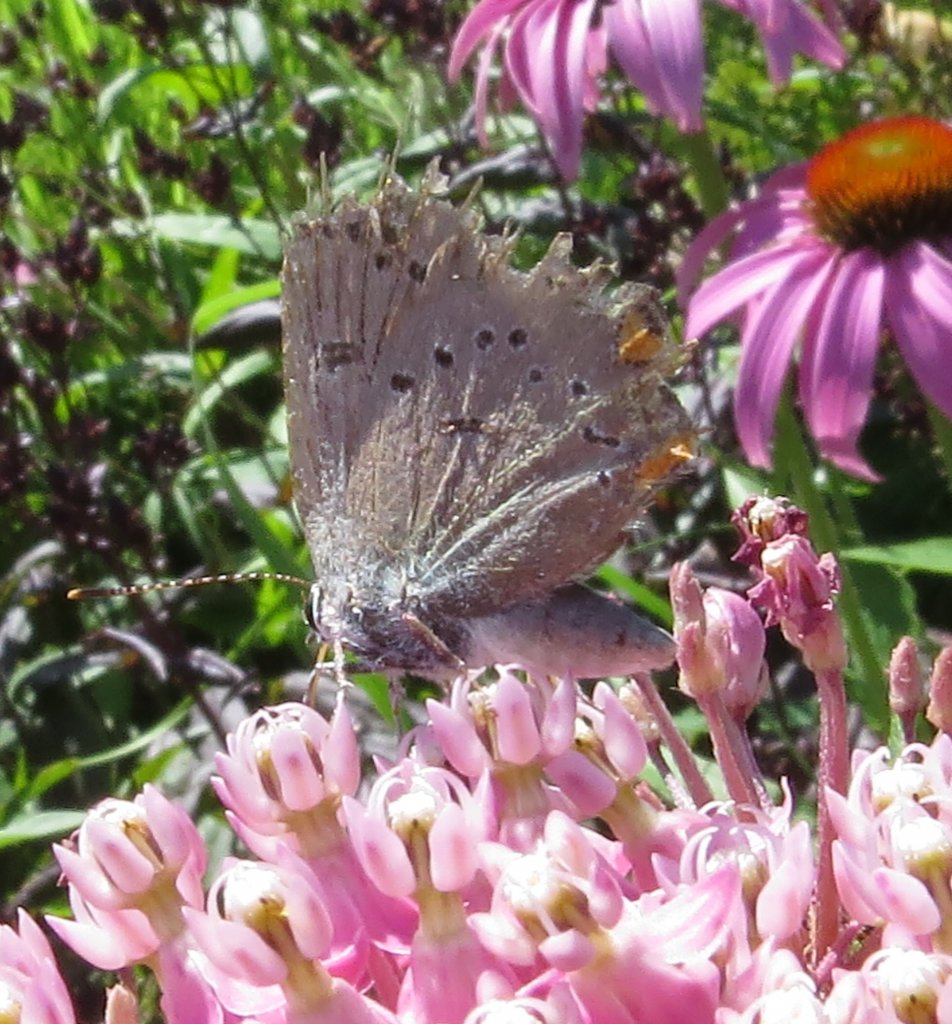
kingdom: Animalia
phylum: Arthropoda
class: Insecta
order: Lepidoptera
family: Lycaenidae
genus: Strymon
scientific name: Strymon acadica
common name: Acadian Hairstreak
